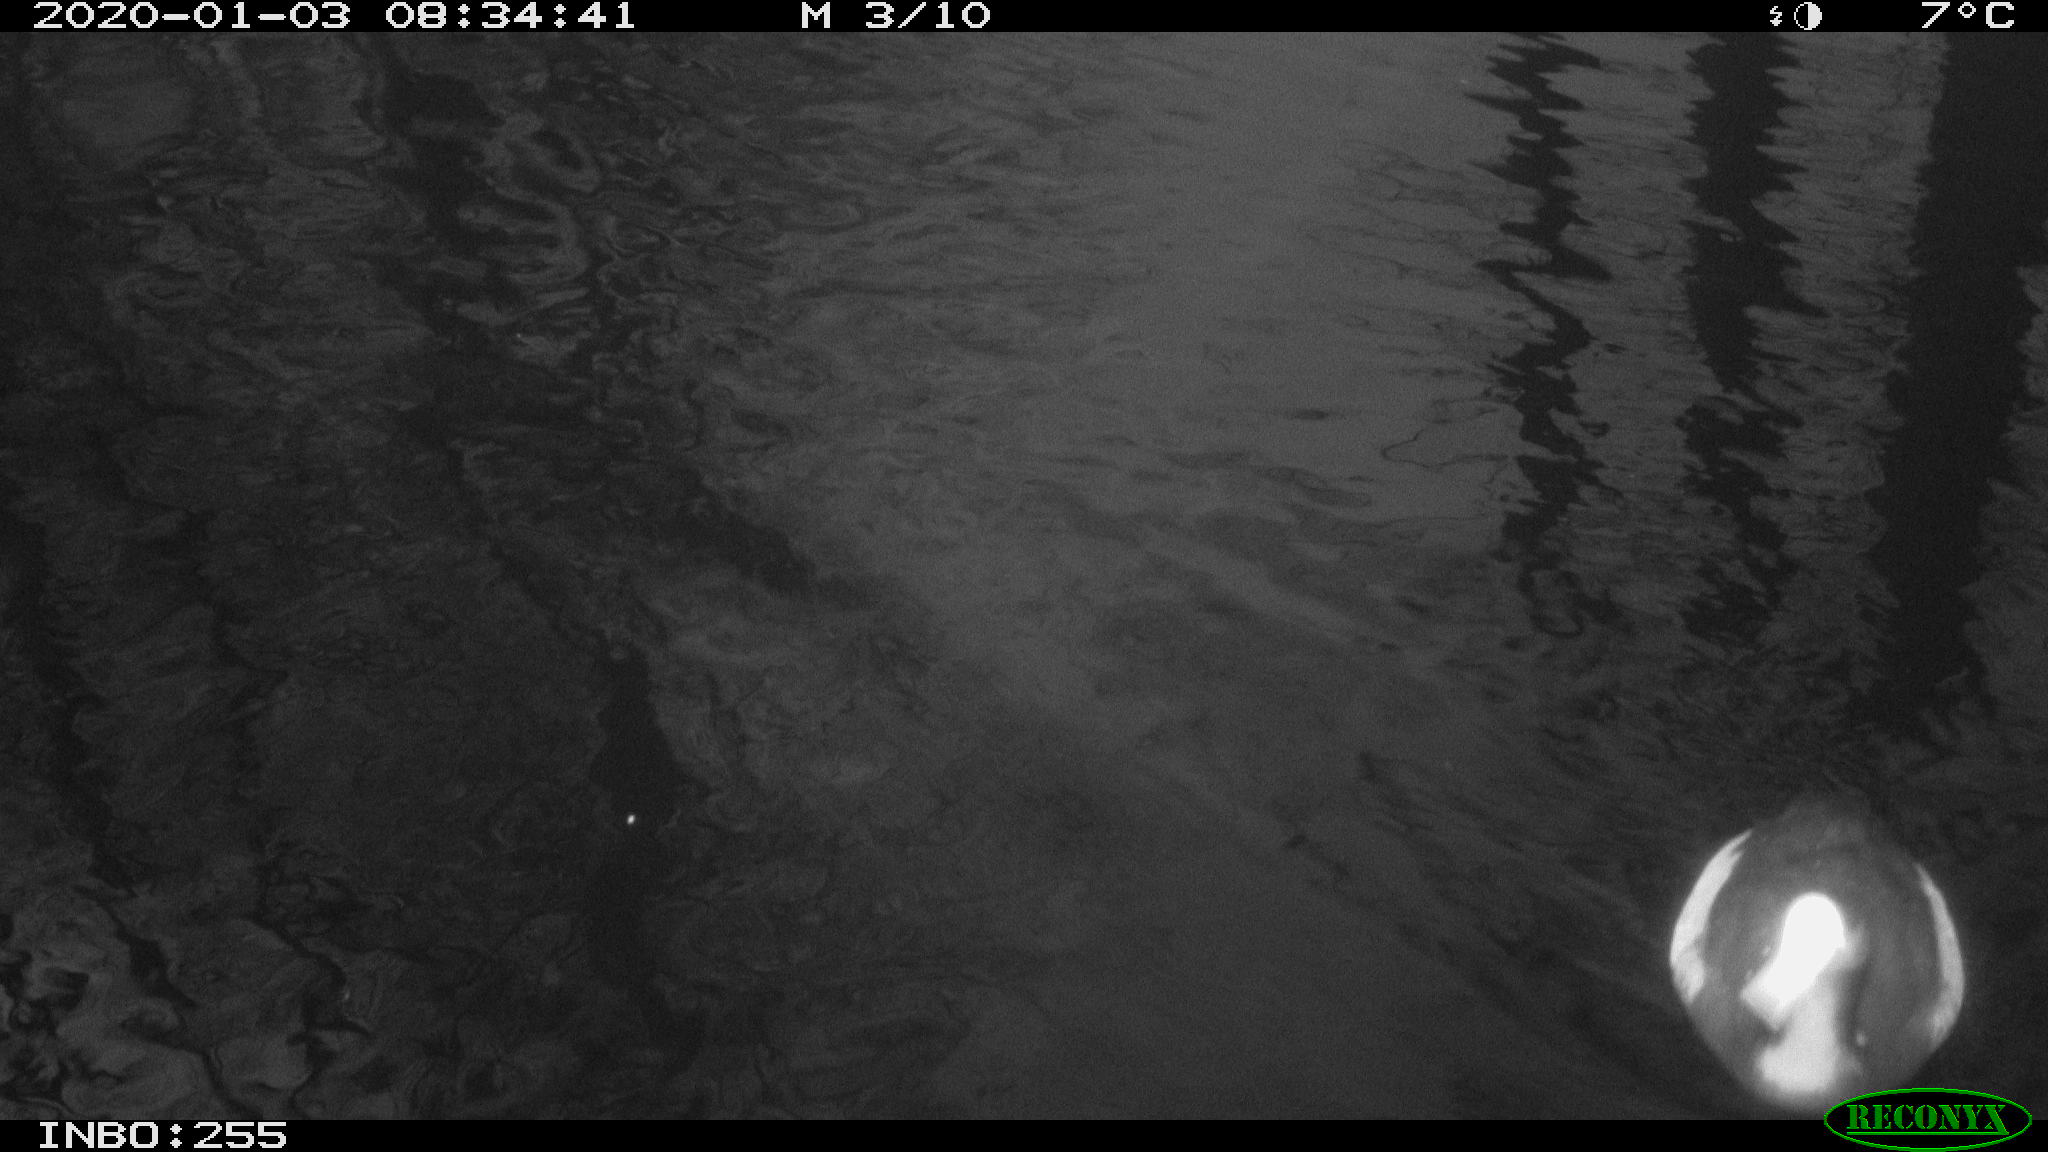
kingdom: Animalia
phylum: Chordata
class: Aves
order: Gruiformes
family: Rallidae
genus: Fulica
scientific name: Fulica atra
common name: Eurasian coot
